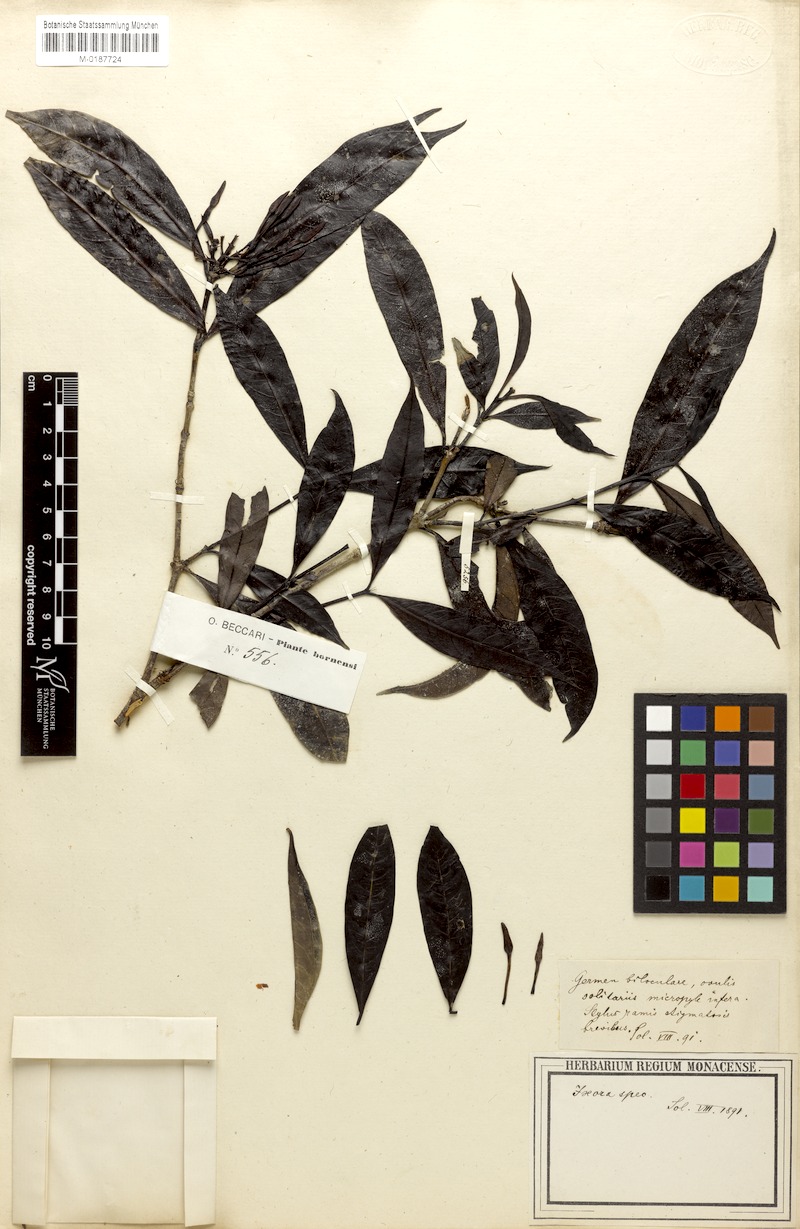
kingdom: Plantae
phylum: Tracheophyta
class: Magnoliopsida
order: Gentianales
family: Rubiaceae
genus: Ixora
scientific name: Ixora
